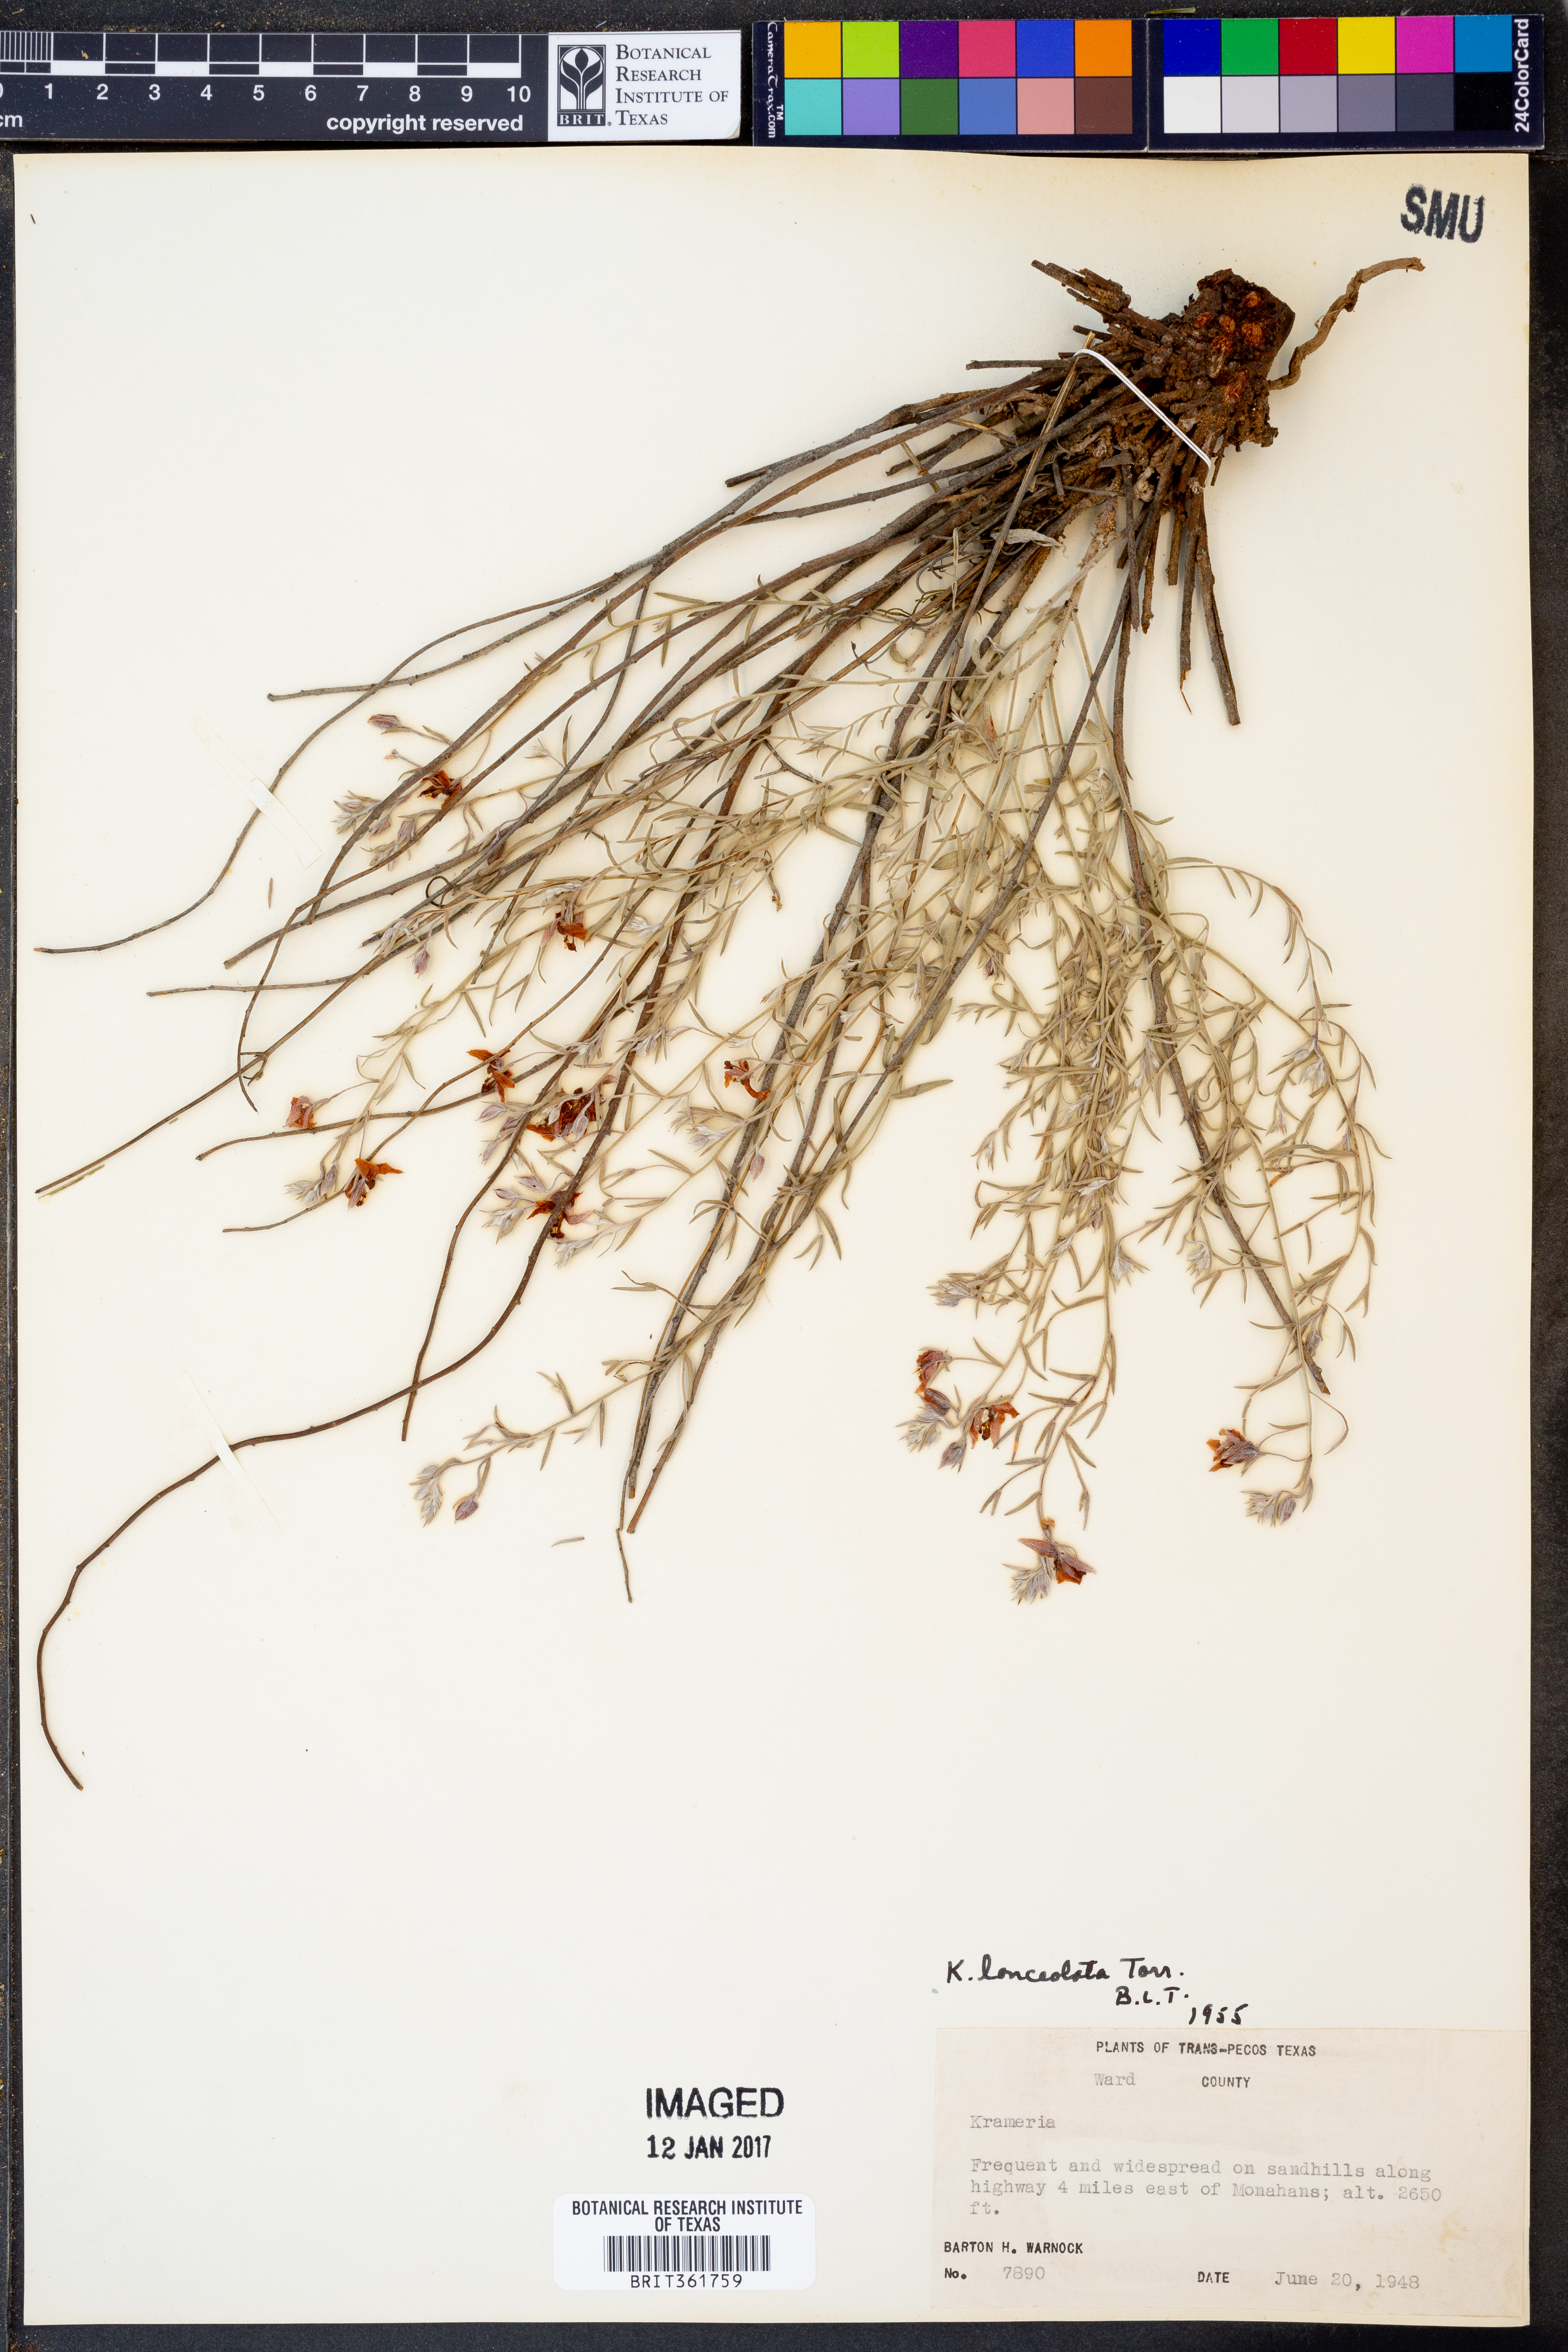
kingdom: Plantae
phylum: Tracheophyta
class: Magnoliopsida
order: Zygophyllales
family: Krameriaceae
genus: Krameria
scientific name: Krameria lanceolata
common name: Ratany
